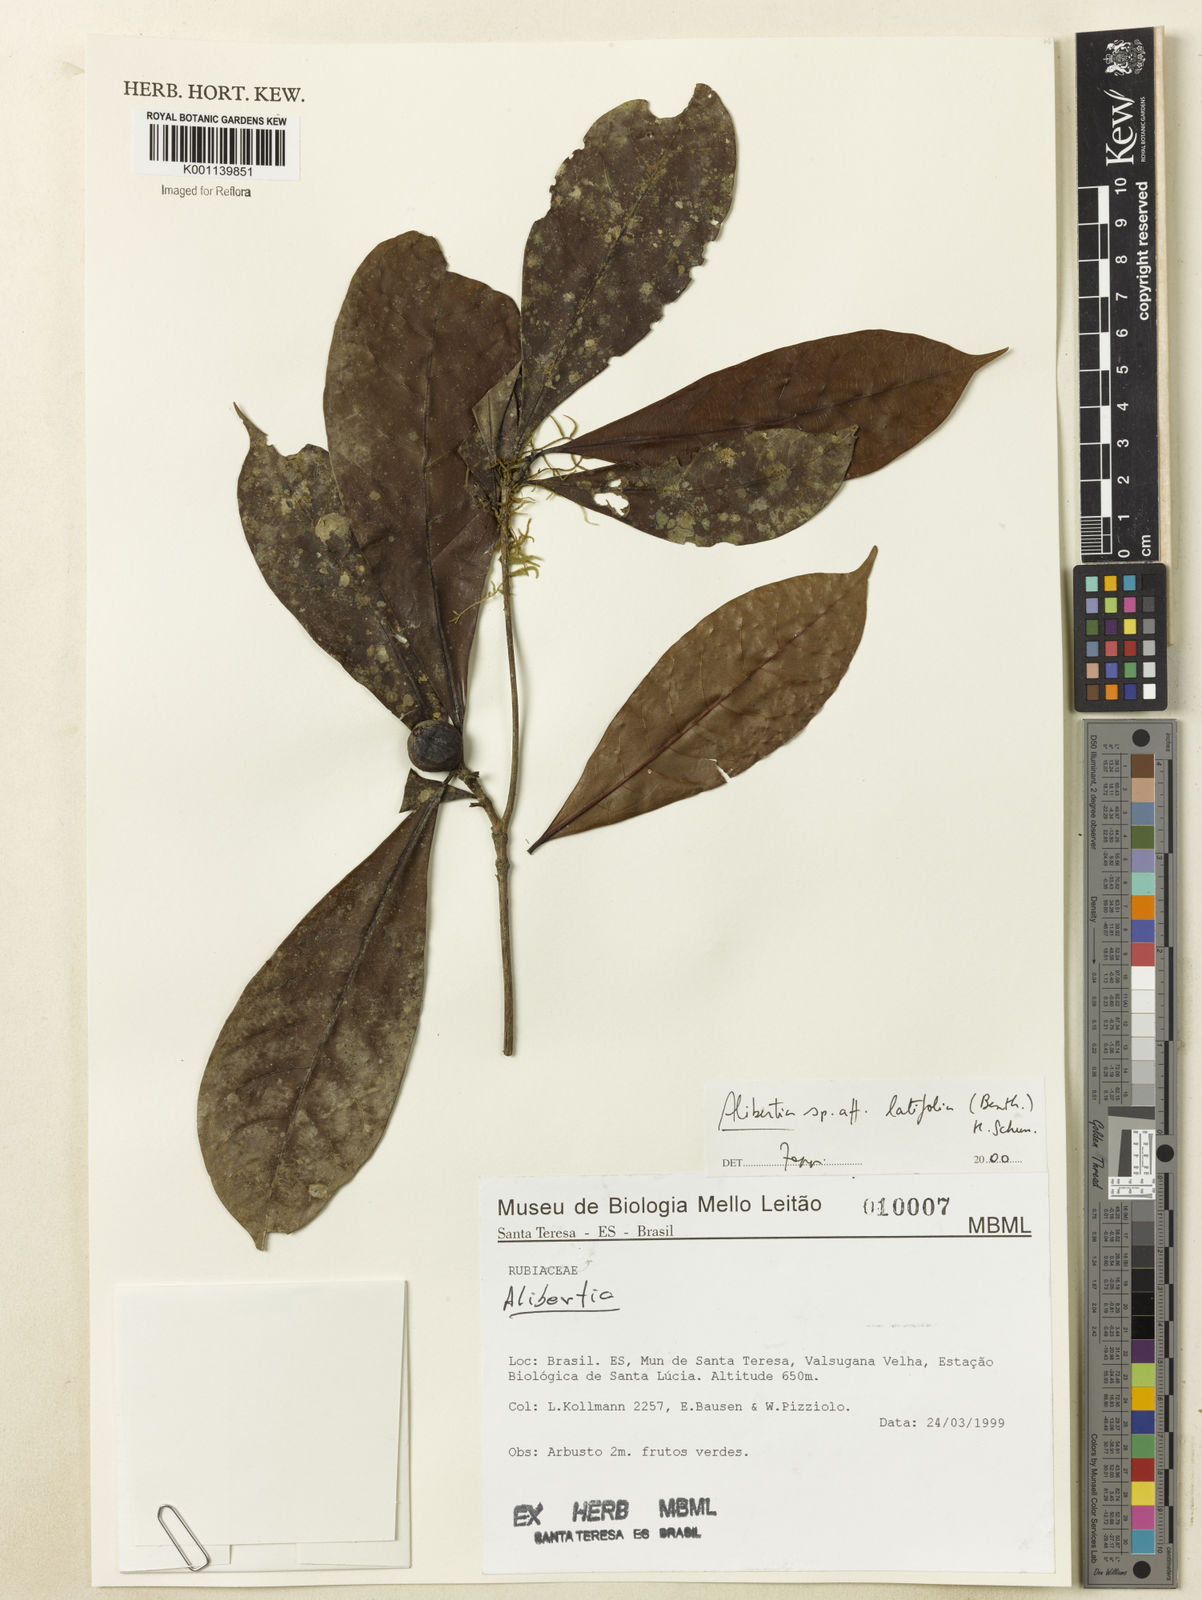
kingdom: Plantae
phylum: Tracheophyta
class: Magnoliopsida
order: Gentianales
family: Rubiaceae
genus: Alibertia
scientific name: Alibertia latifolia
